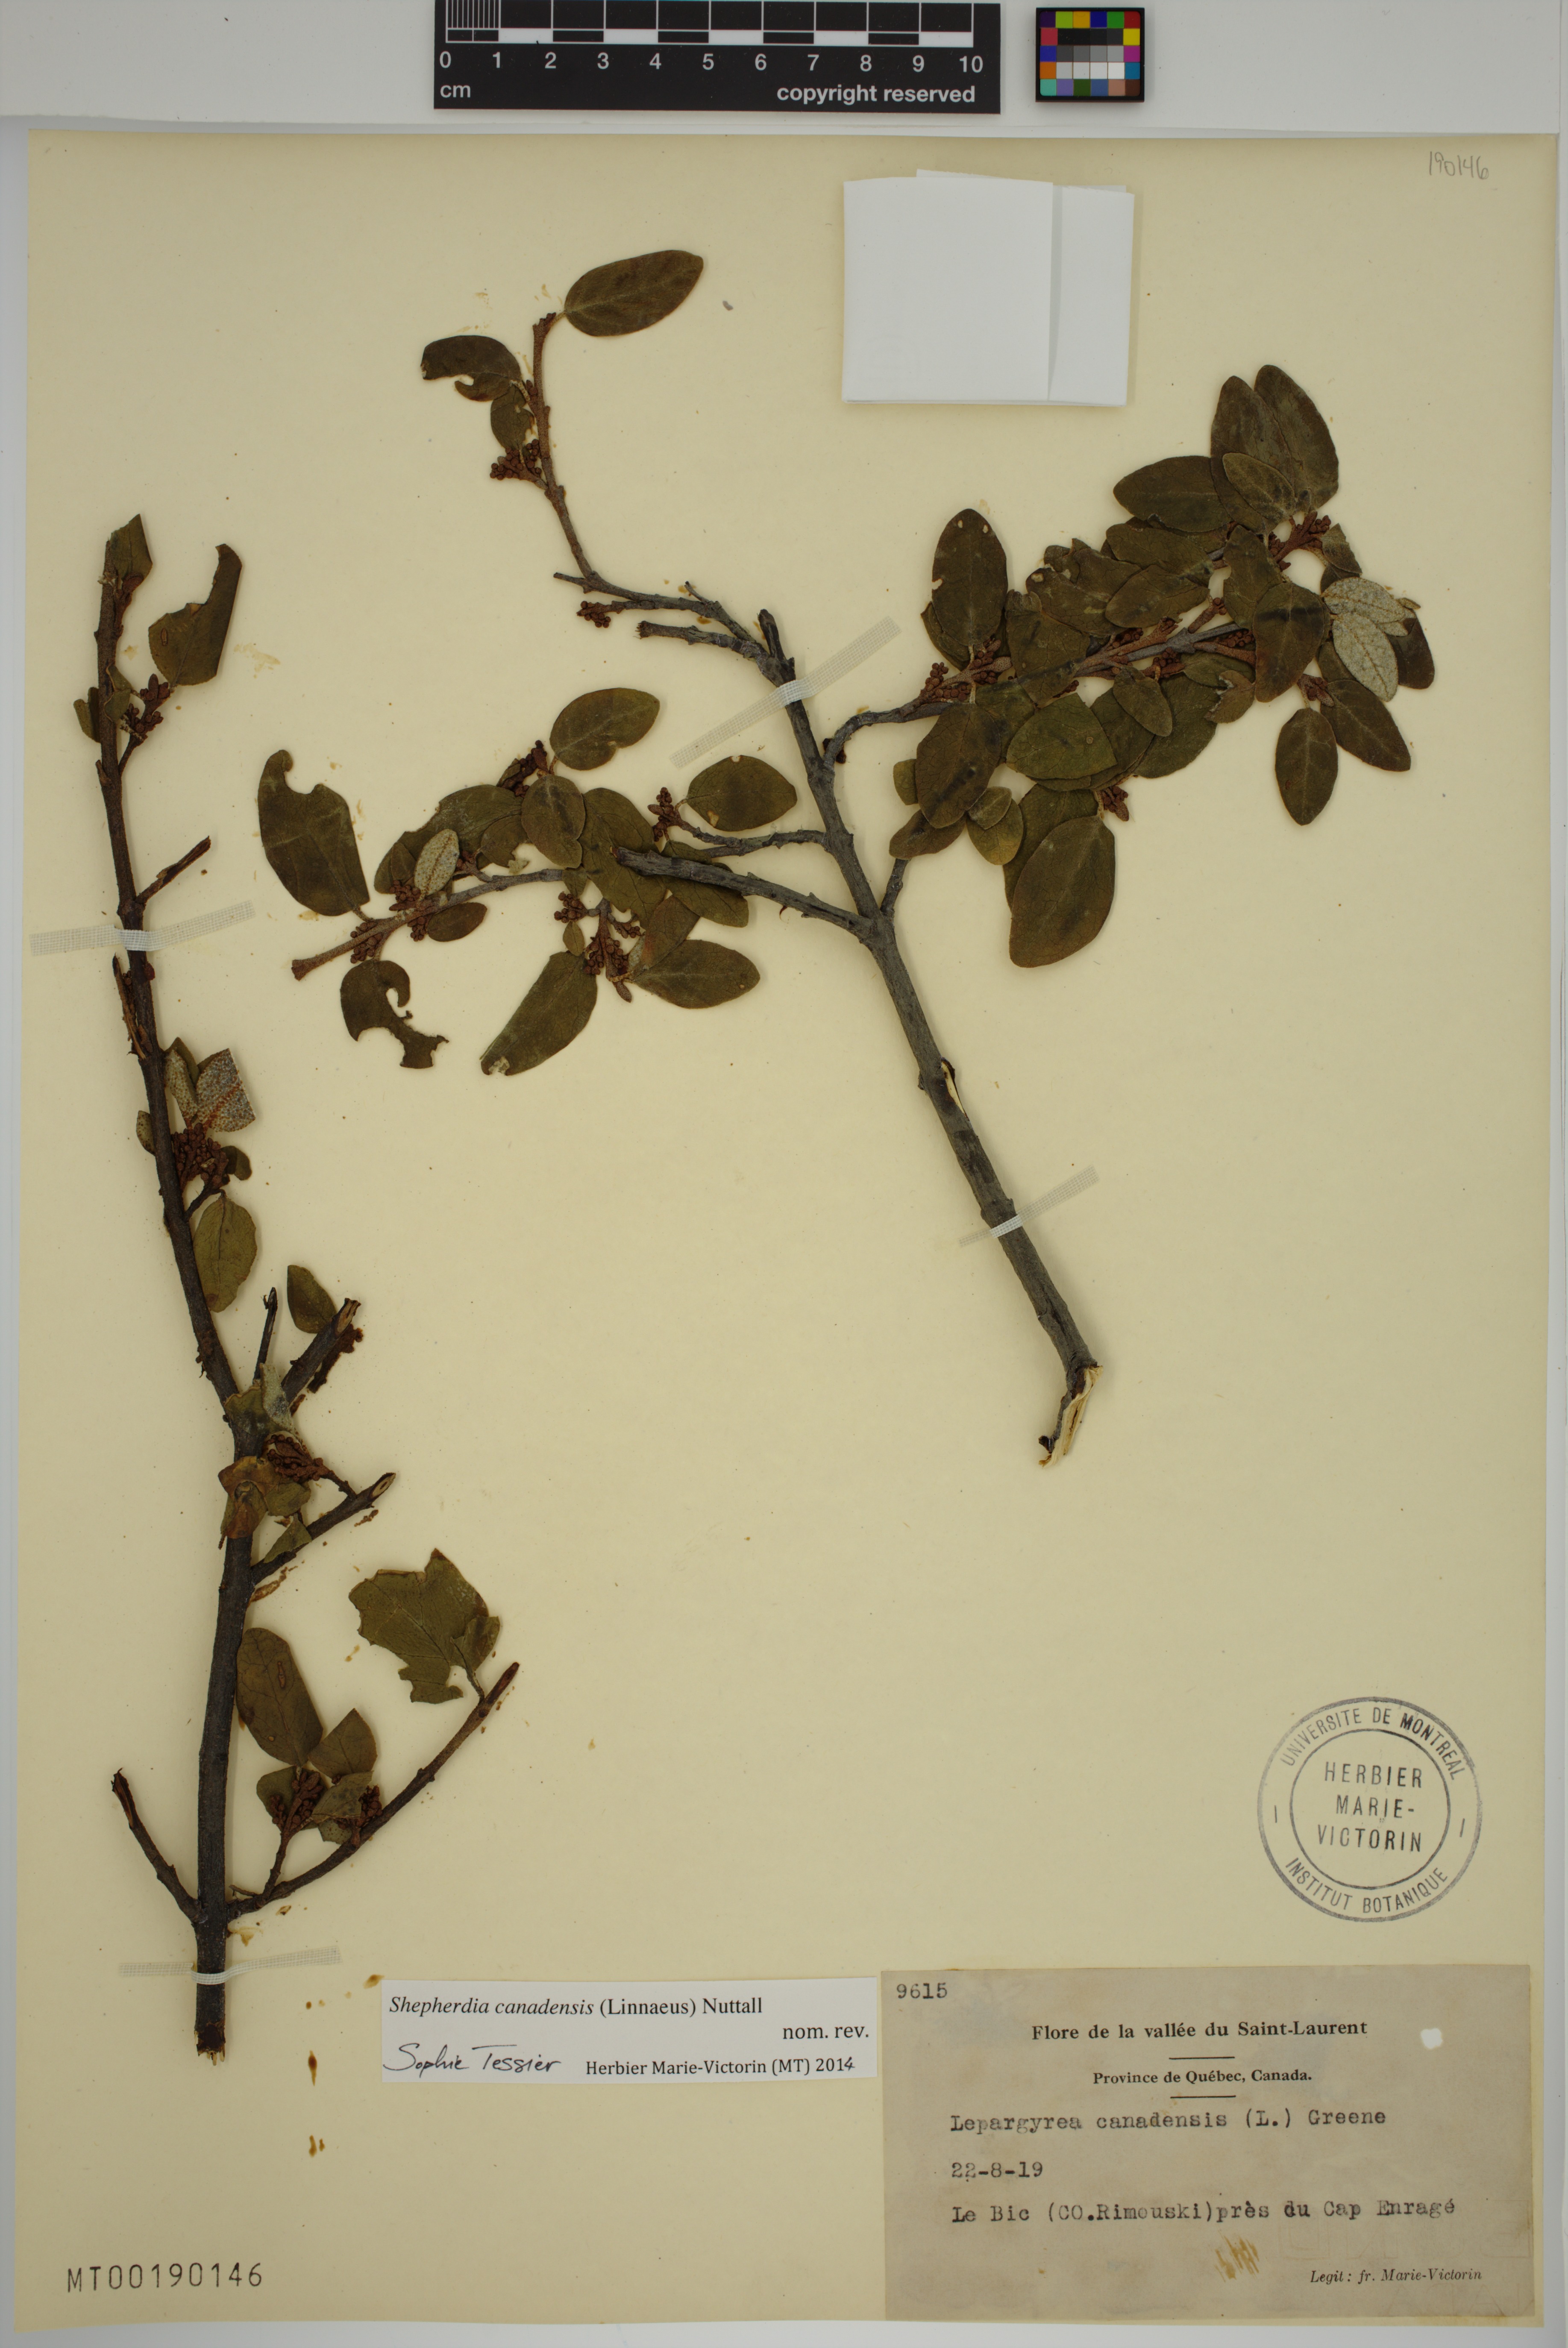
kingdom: Plantae
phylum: Tracheophyta
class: Magnoliopsida
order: Rosales
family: Elaeagnaceae
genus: Shepherdia
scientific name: Shepherdia canadensis
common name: Soapberry
